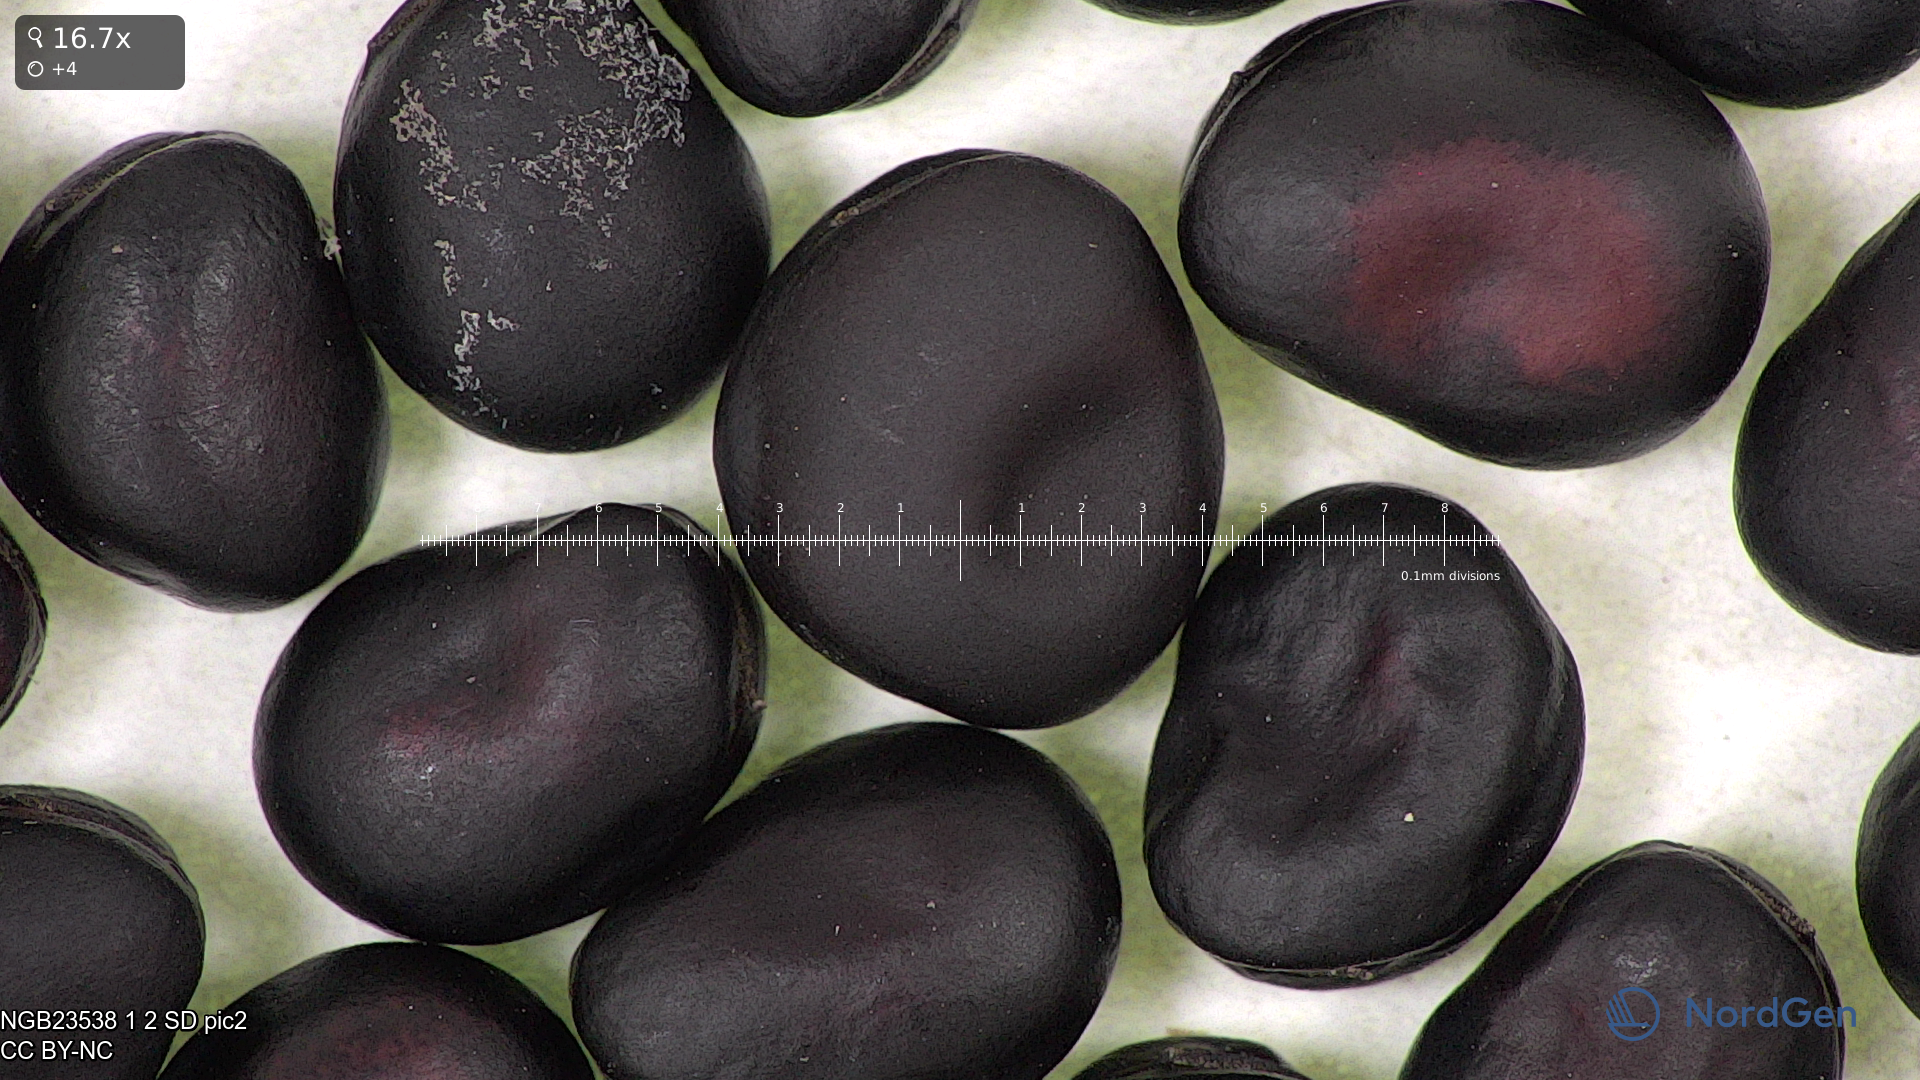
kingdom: Plantae
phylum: Tracheophyta
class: Magnoliopsida
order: Fabales
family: Fabaceae
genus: Vicia
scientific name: Vicia faba
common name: Broad bean
